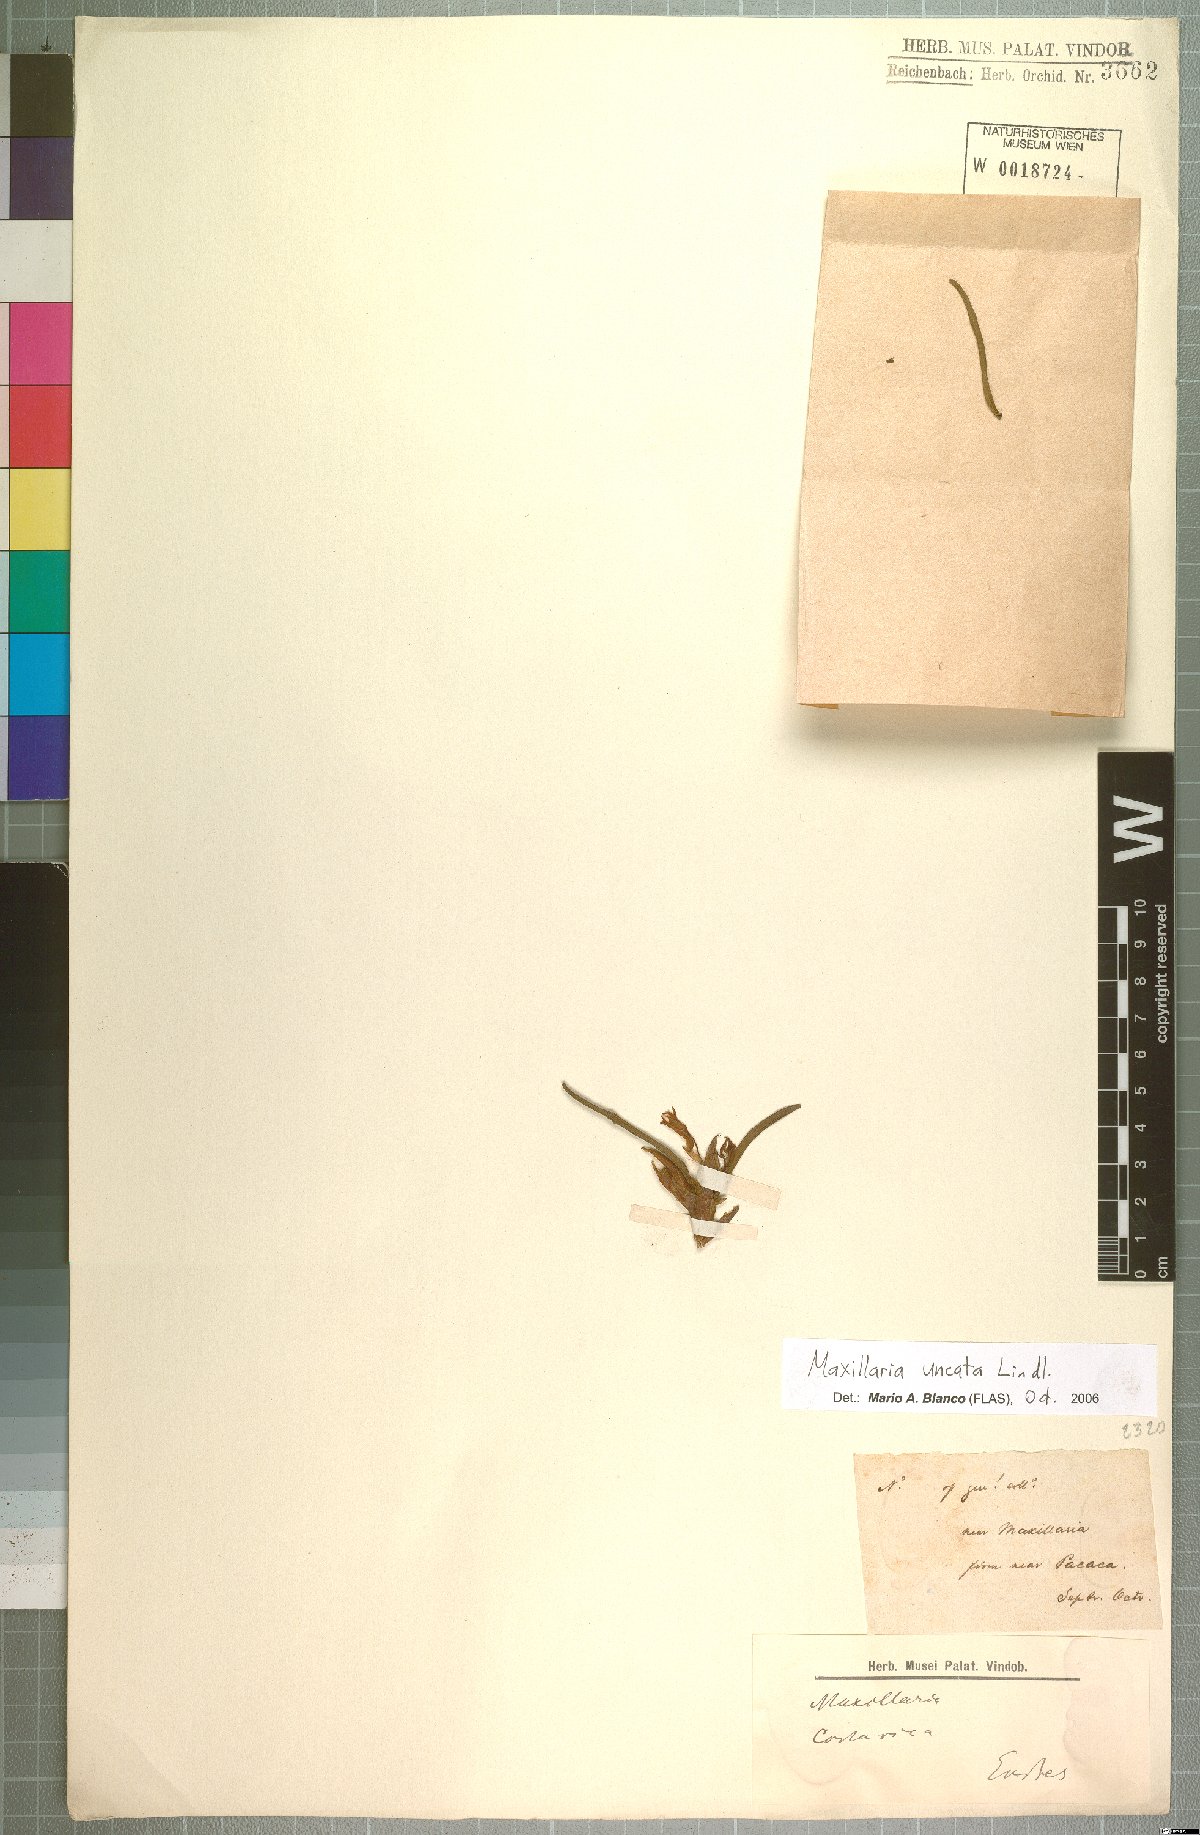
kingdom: Plantae
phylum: Tracheophyta
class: Liliopsida
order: Asparagales
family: Orchidaceae
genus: Maxillaria
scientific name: Maxillaria uncata
